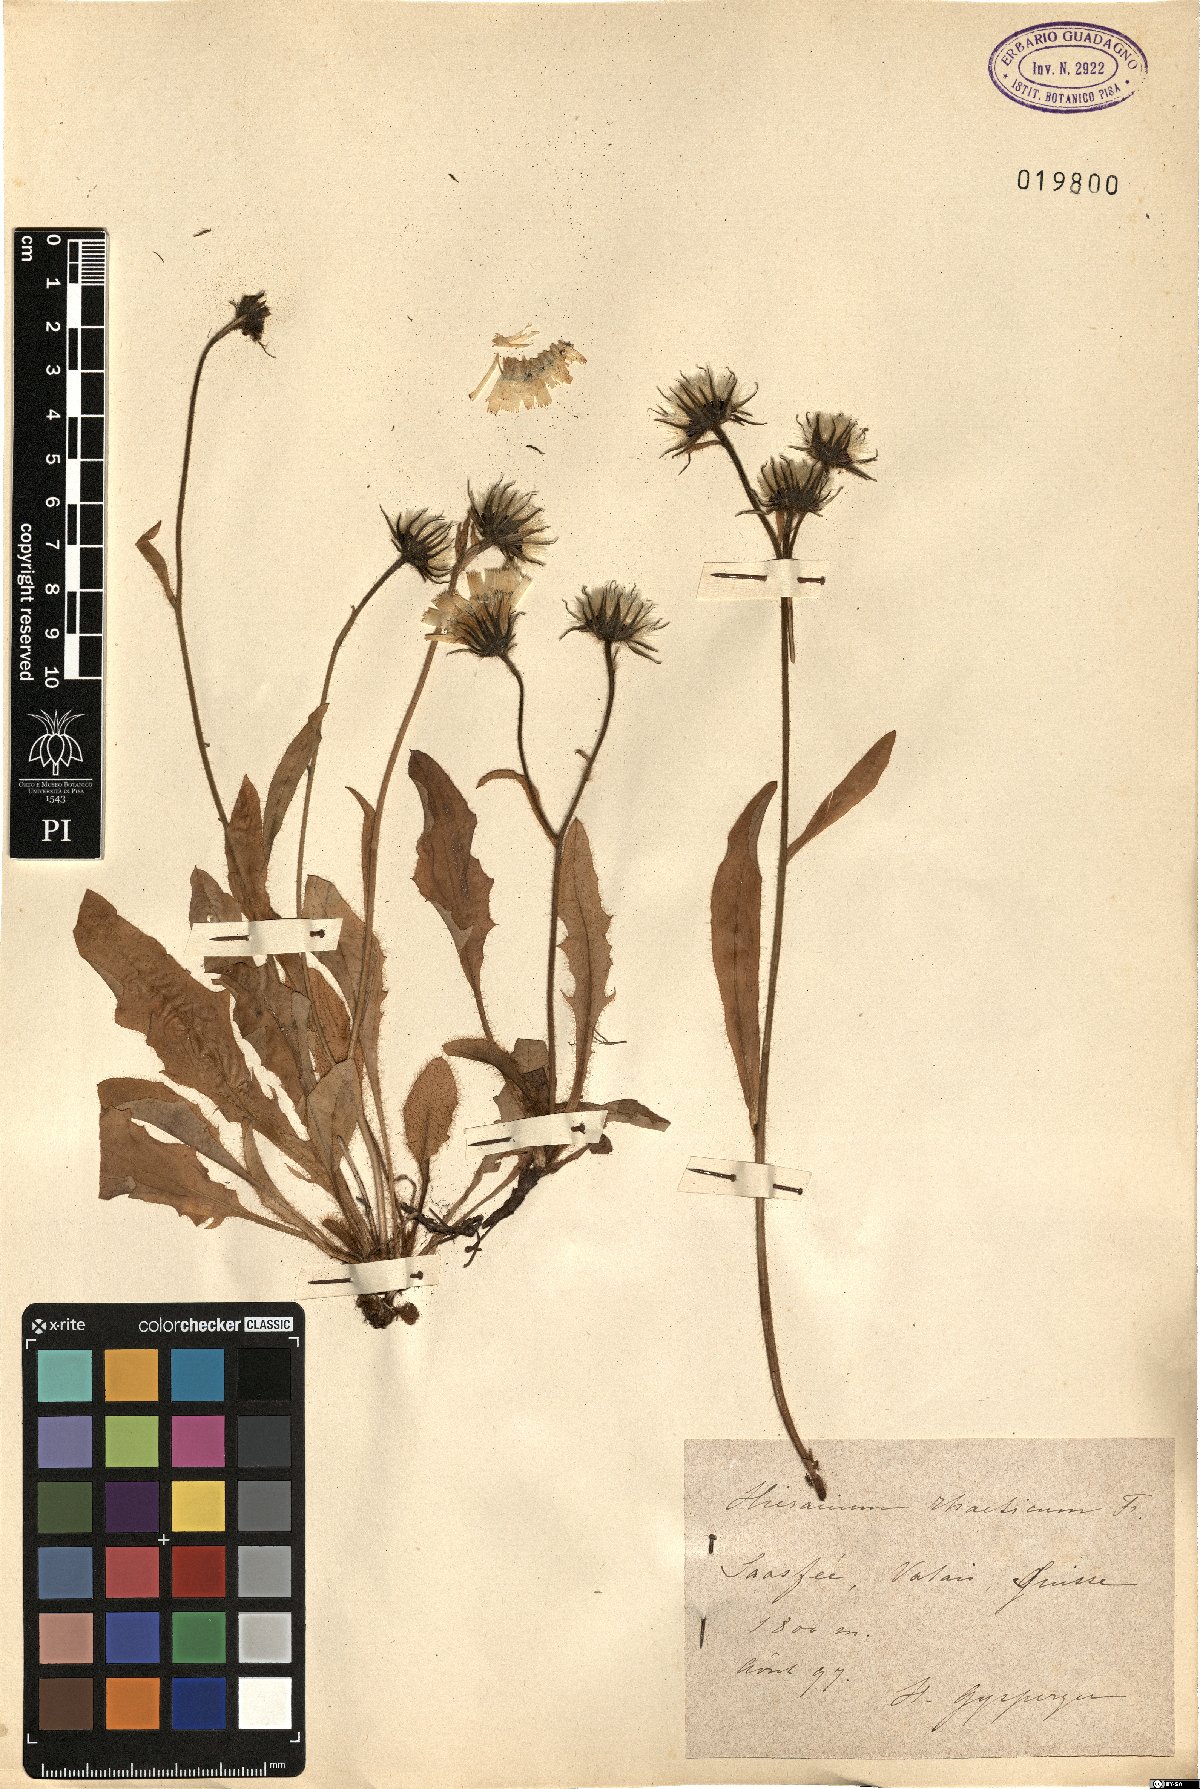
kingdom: Plantae
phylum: Tracheophyta
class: Magnoliopsida
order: Asterales
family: Asteraceae
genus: Hieracium
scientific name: Hieracium nigrescens
